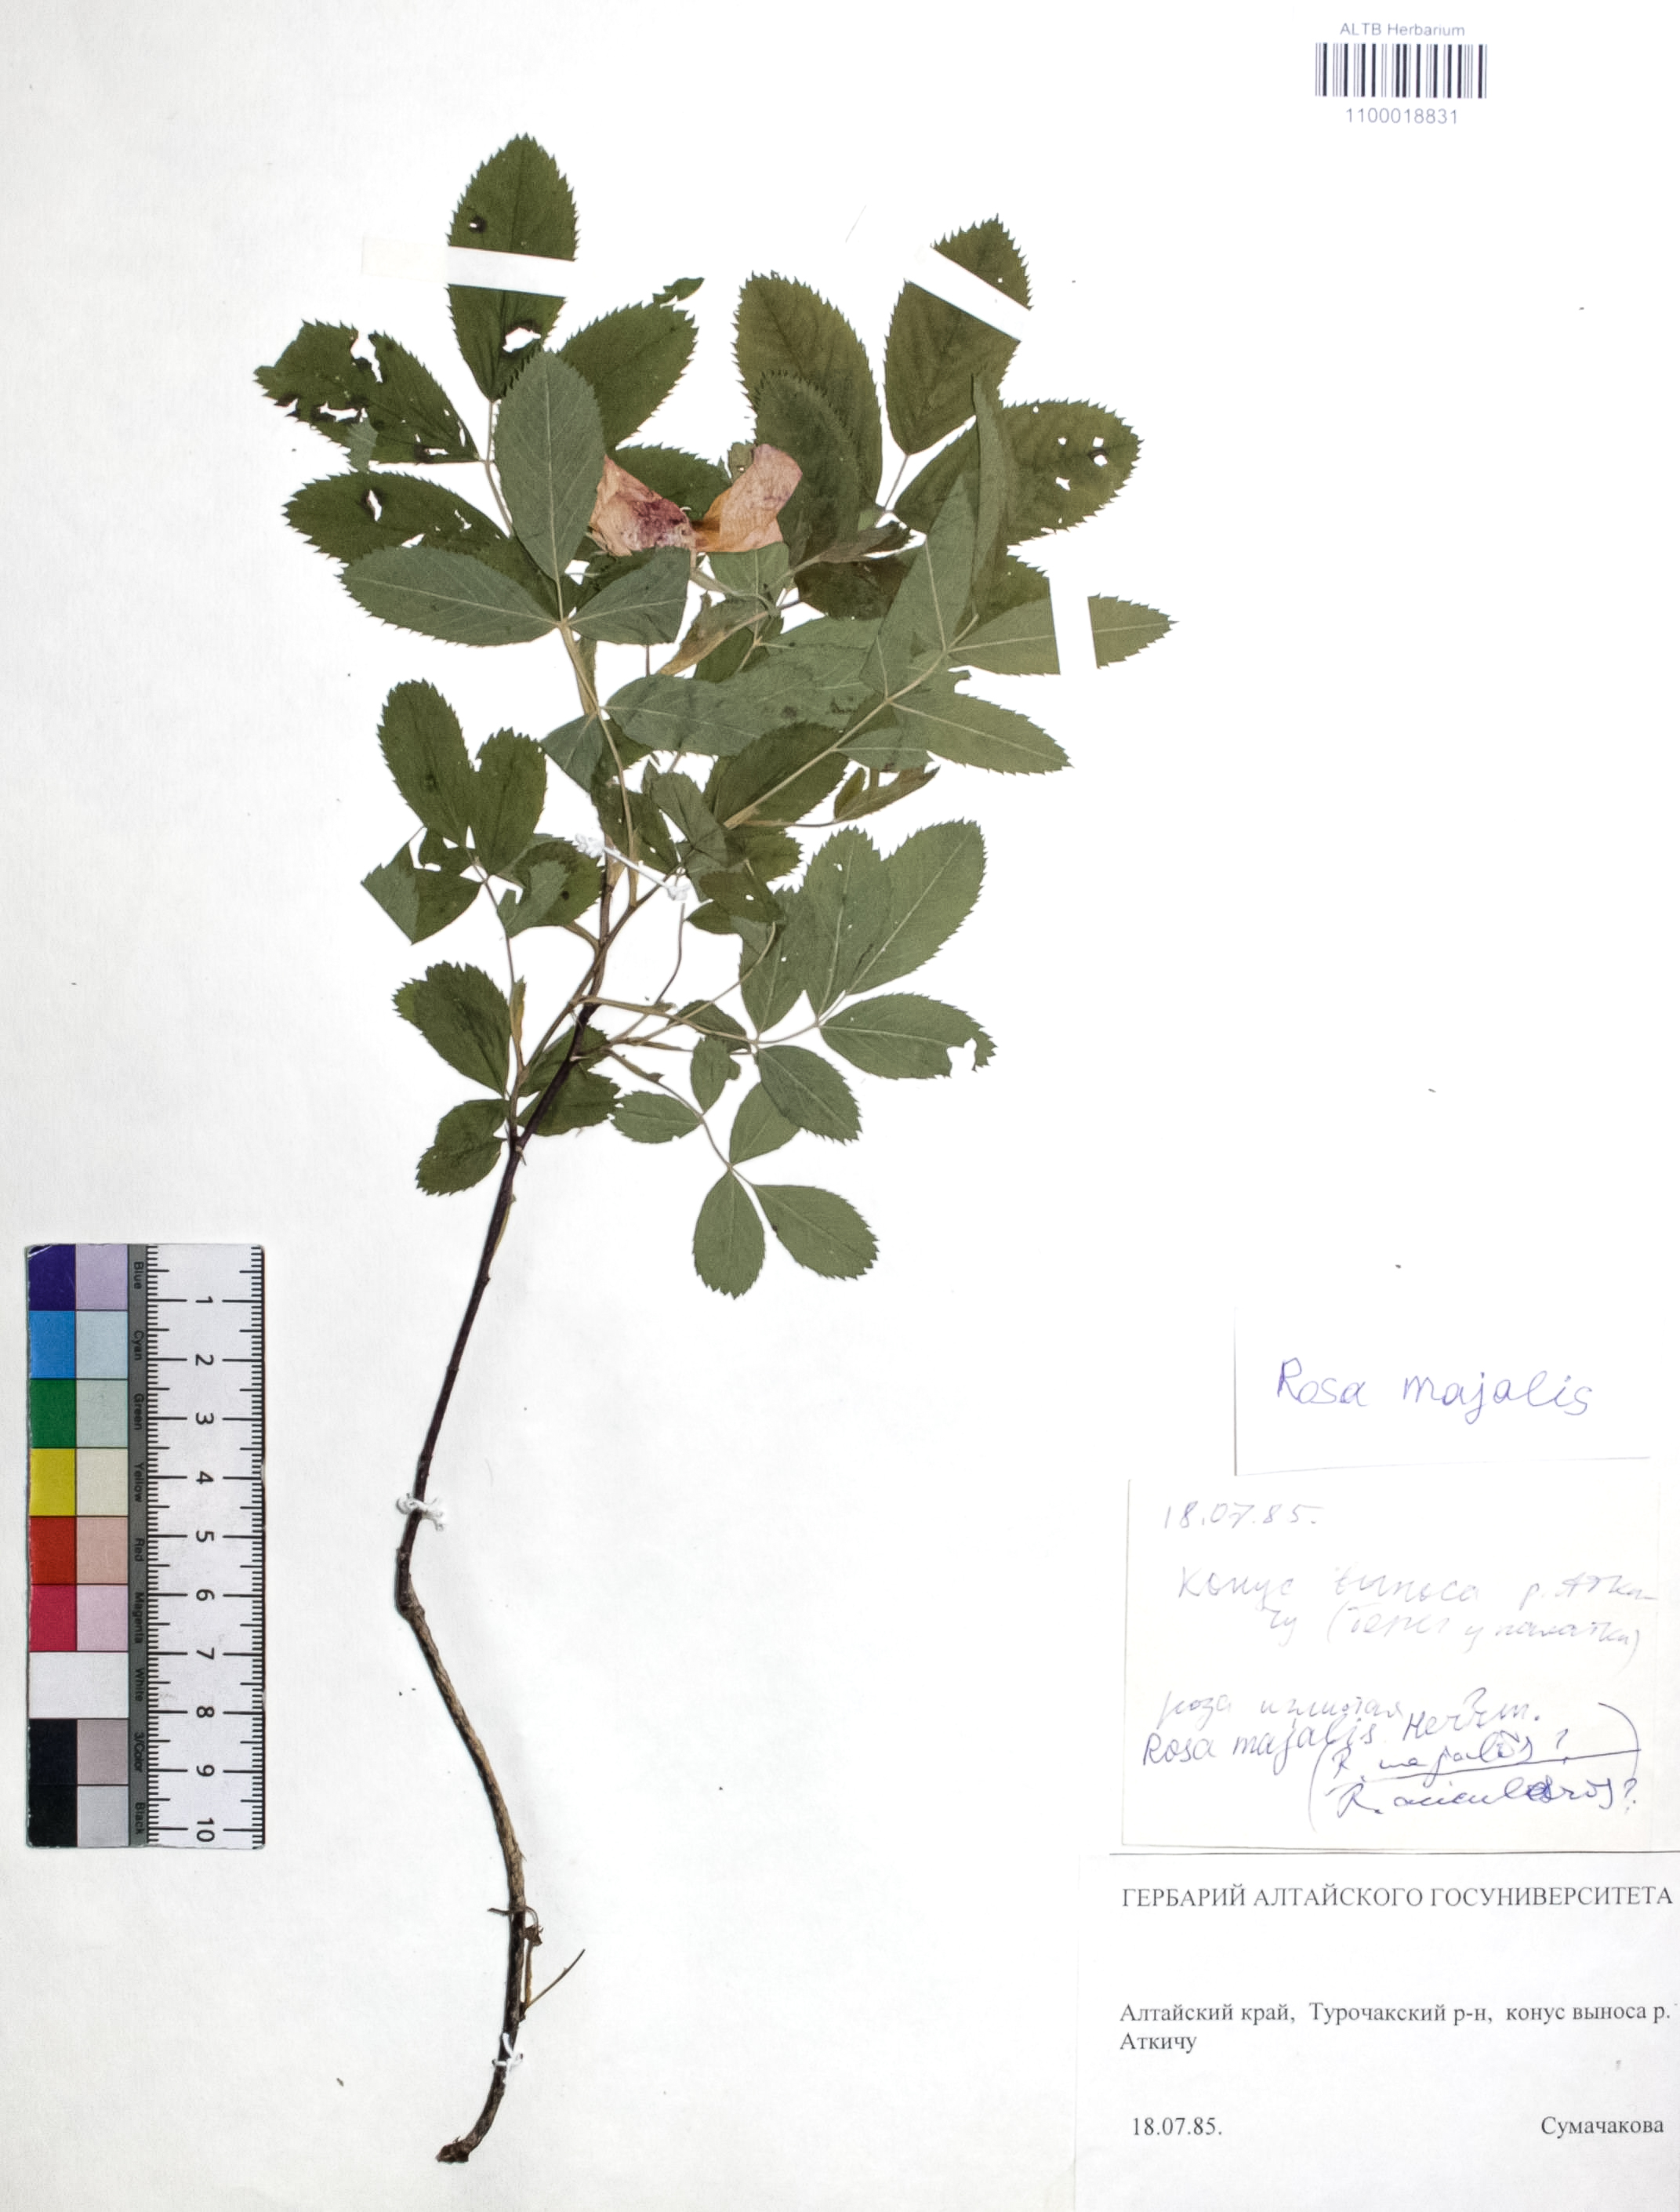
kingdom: Plantae
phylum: Tracheophyta
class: Magnoliopsida
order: Rosales
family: Rosaceae
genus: Rosa
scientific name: Rosa majalis
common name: Cinnamon rose
